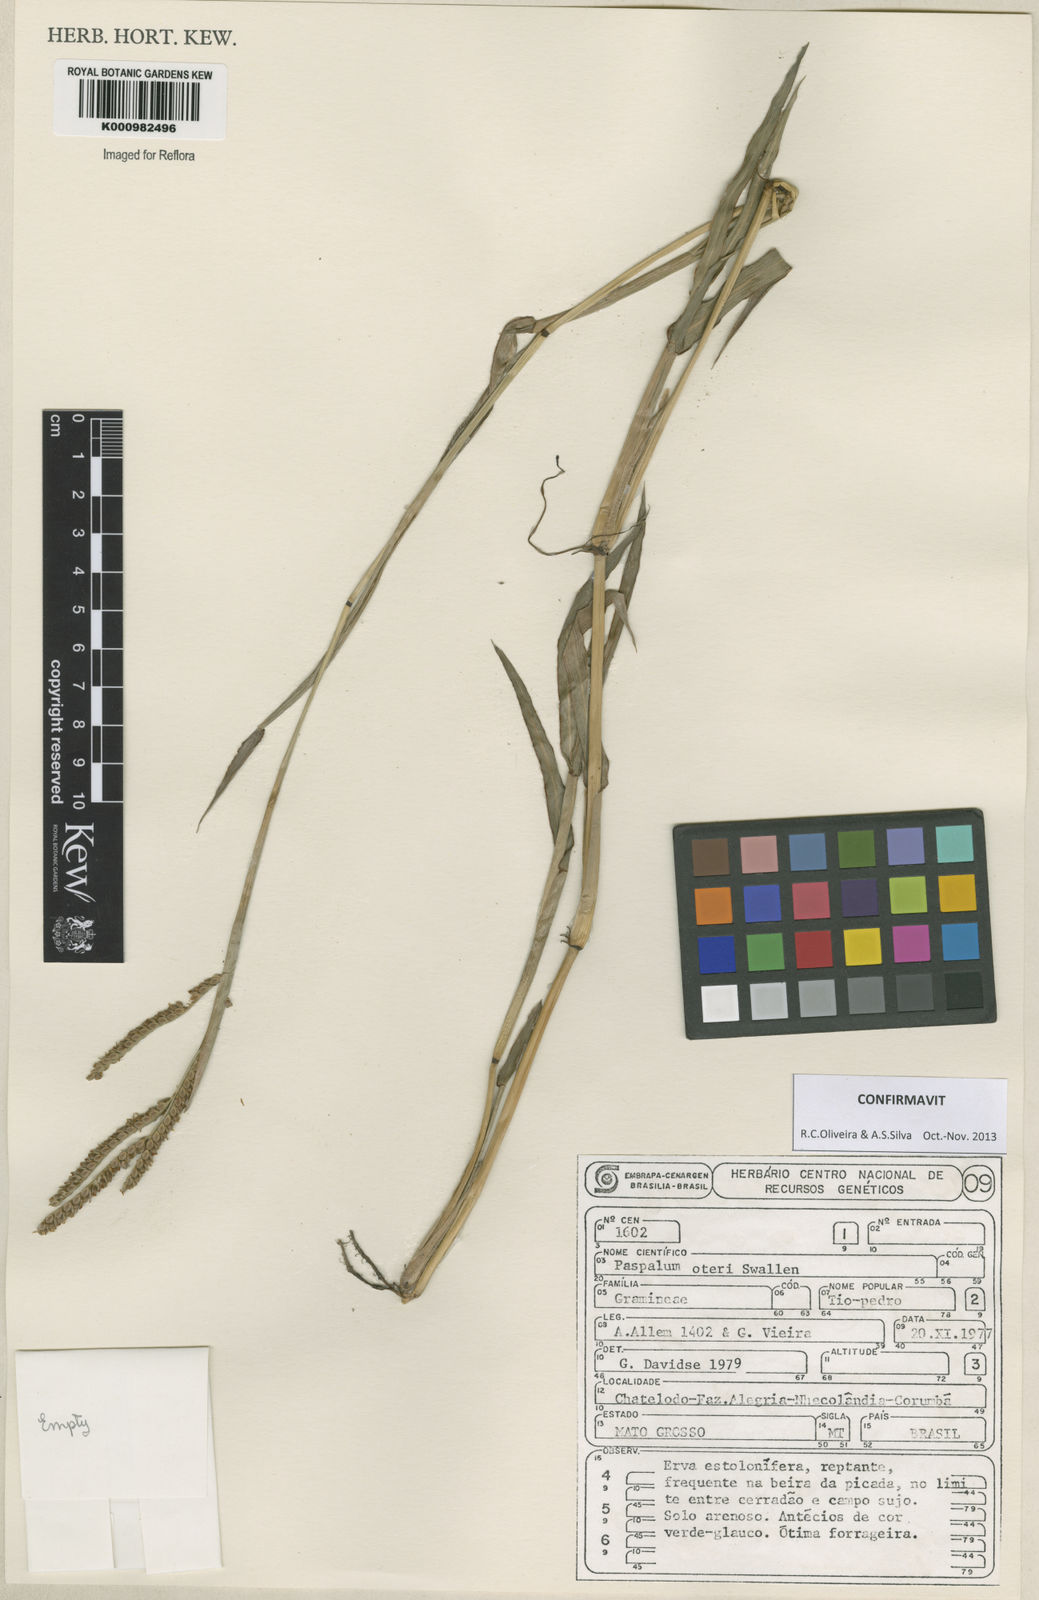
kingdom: Plantae
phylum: Tracheophyta
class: Liliopsida
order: Poales
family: Poaceae
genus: Paspalum
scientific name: Paspalum oteroi
